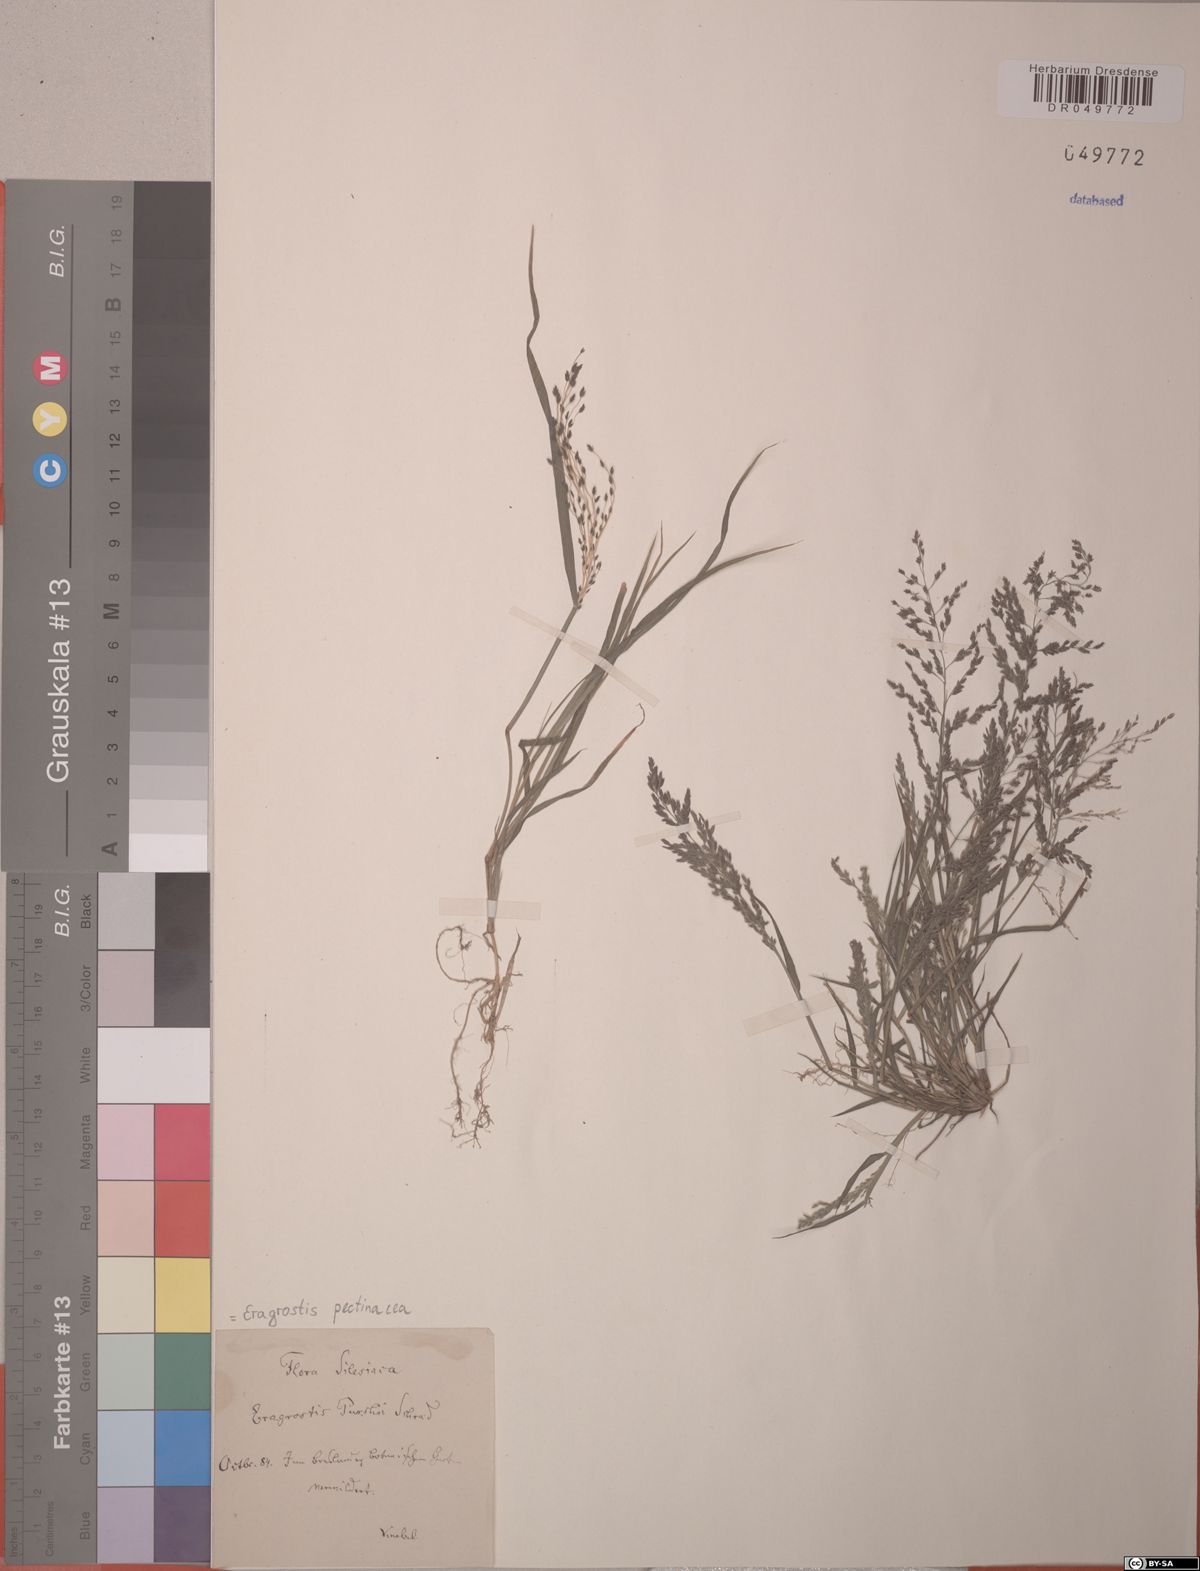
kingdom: Plantae
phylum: Tracheophyta
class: Liliopsida
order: Poales
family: Poaceae
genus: Eragrostis
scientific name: Eragrostis pectinacea
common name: Tufted lovegrass
